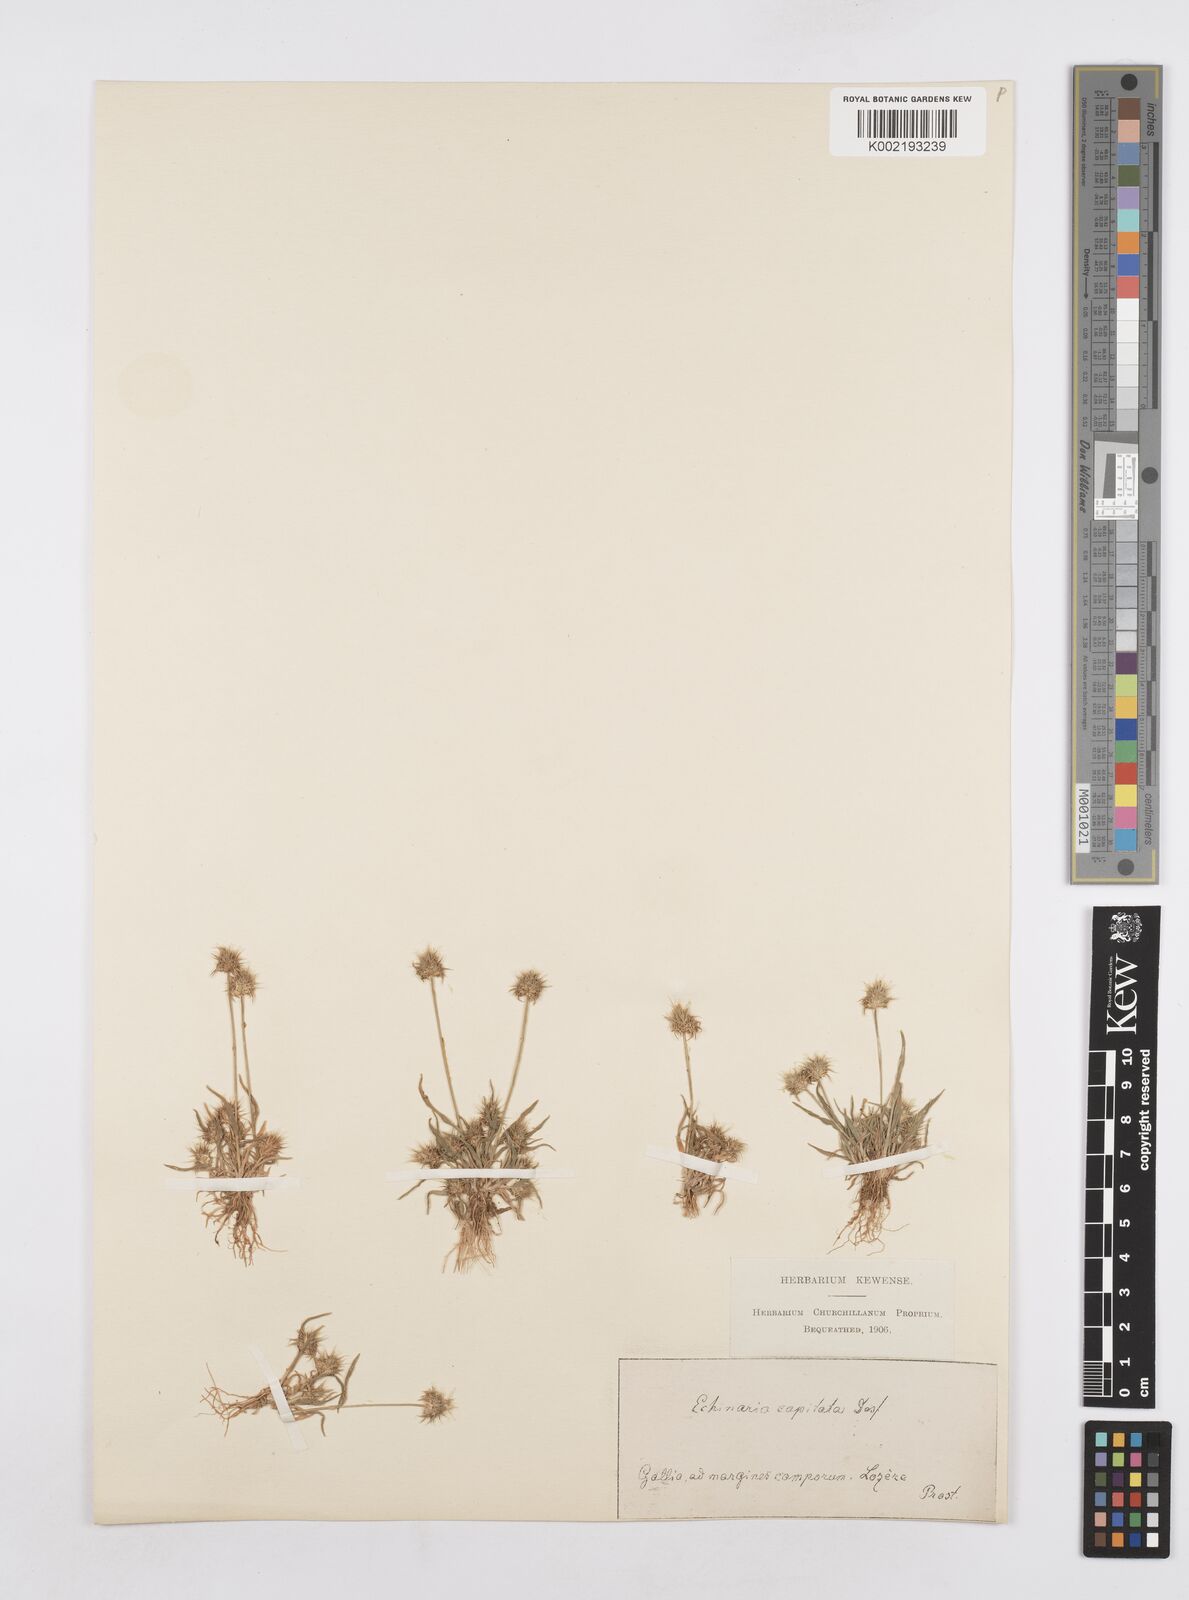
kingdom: Plantae
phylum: Tracheophyta
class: Liliopsida
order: Poales
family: Poaceae
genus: Echinaria
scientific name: Echinaria capitata
